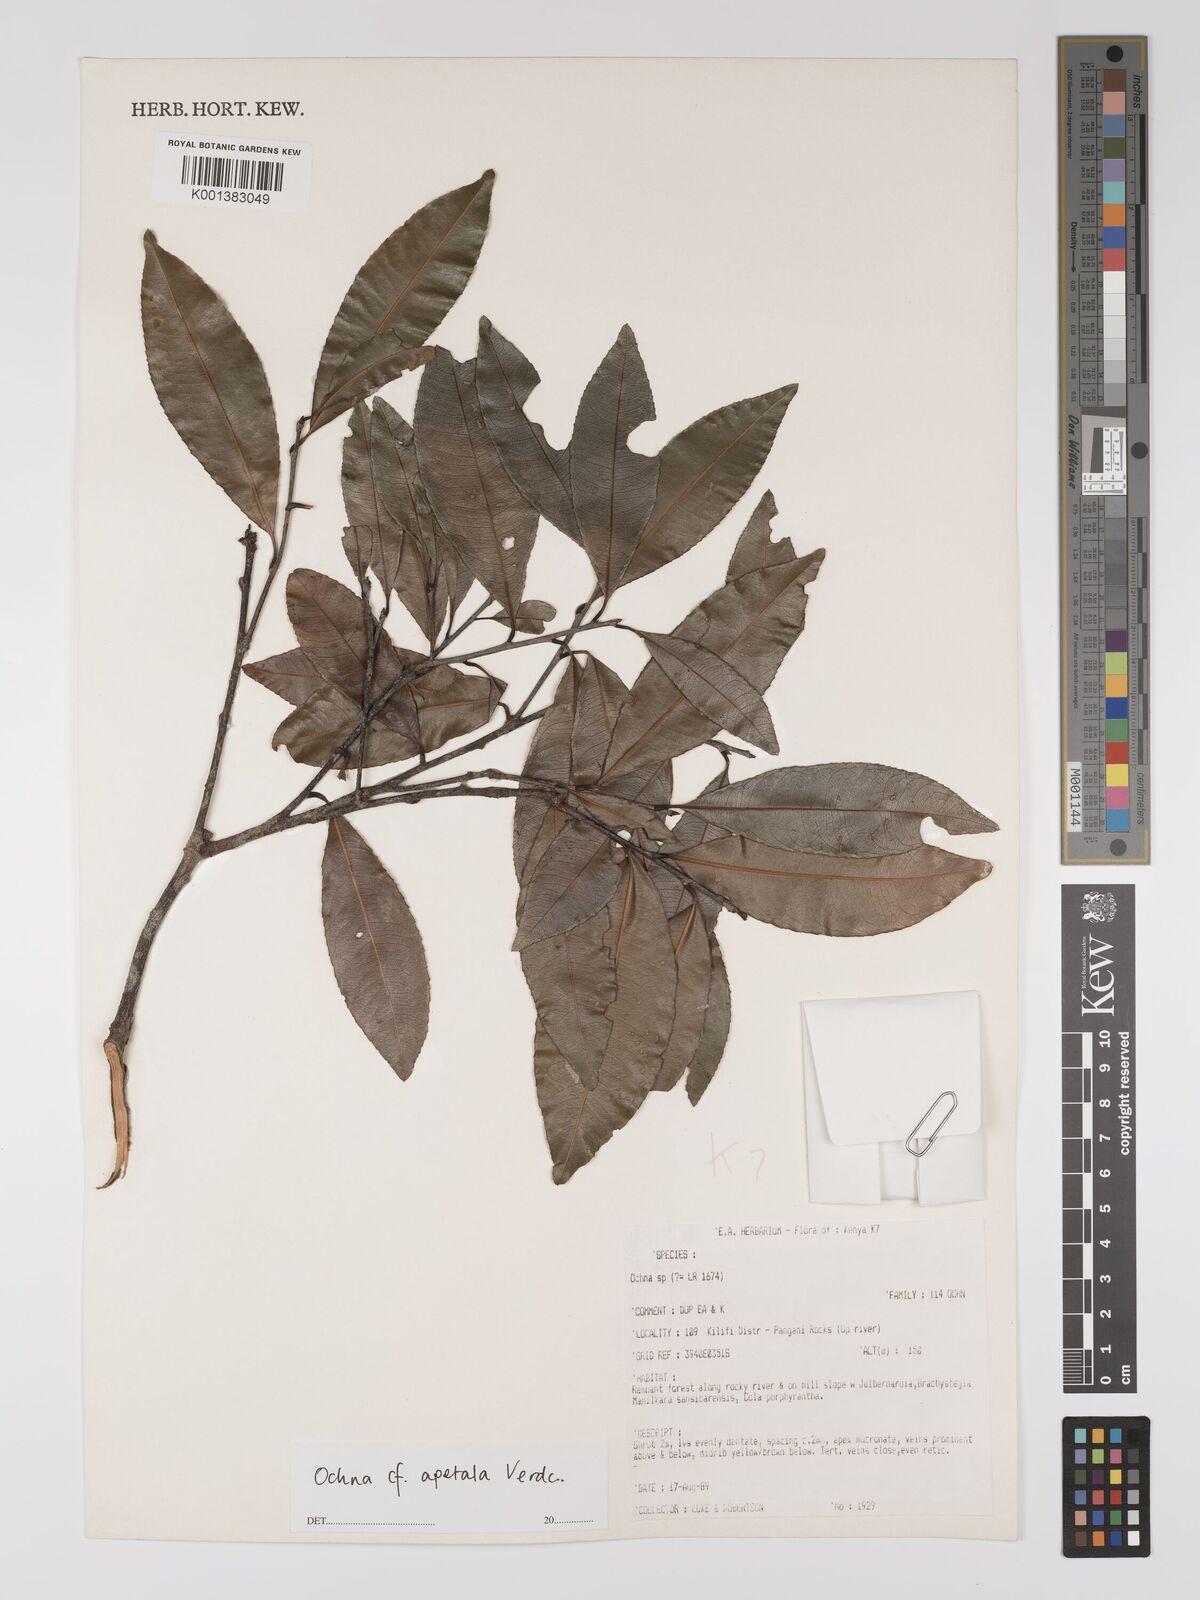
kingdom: Plantae
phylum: Tracheophyta
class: Magnoliopsida
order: Malpighiales
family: Ochnaceae
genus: Ochna
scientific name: Ochna apetala
